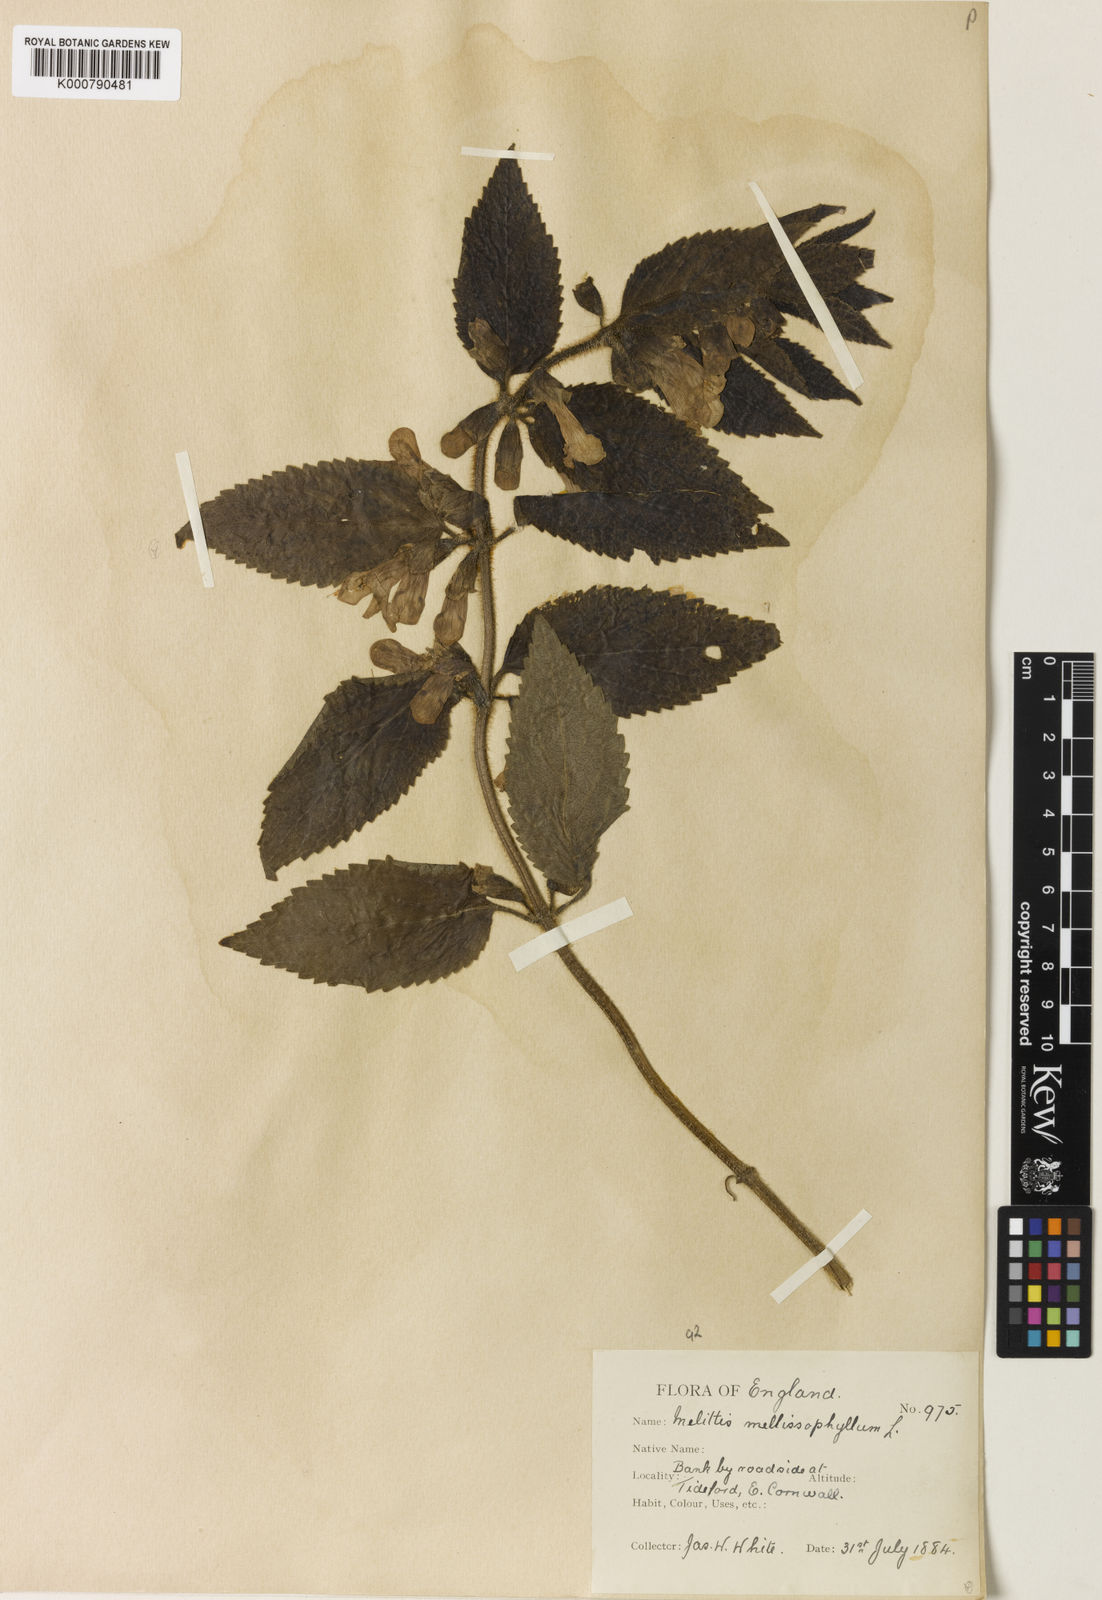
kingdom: Plantae
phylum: Tracheophyta
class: Magnoliopsida
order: Lamiales
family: Lamiaceae
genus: Melittis
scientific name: Melittis melissophyllum
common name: Bastard balm
